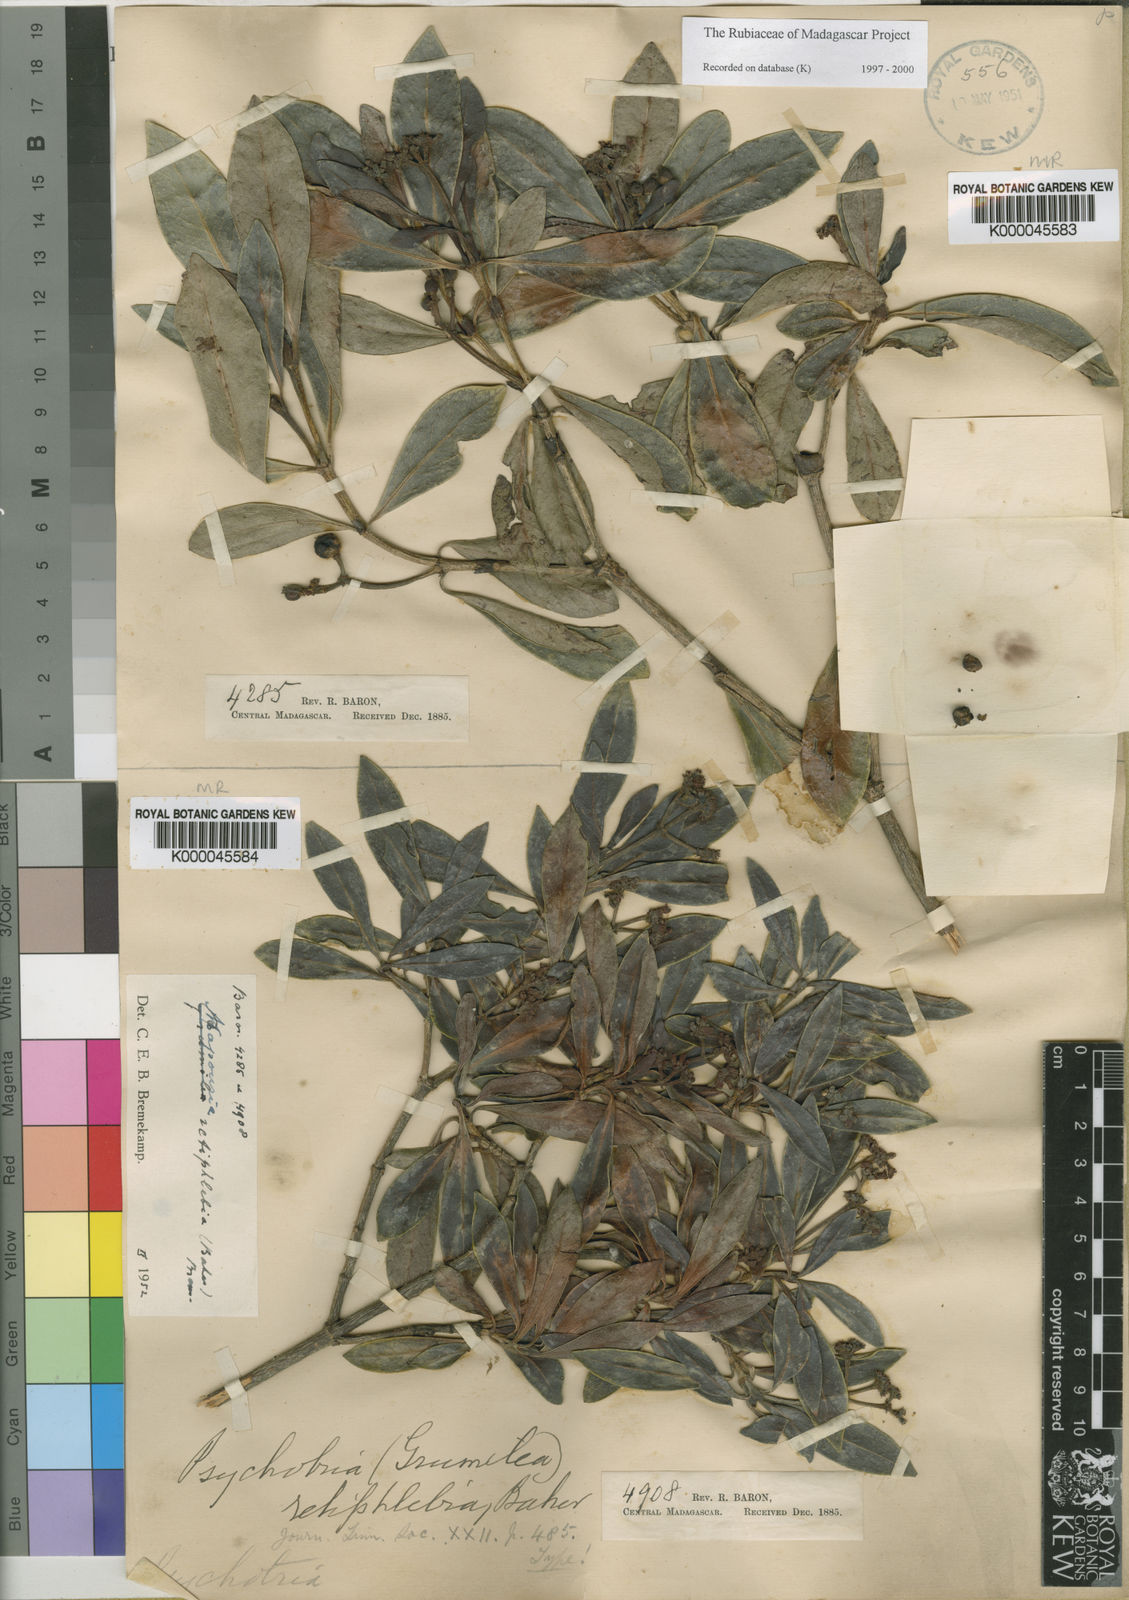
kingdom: Plantae
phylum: Tracheophyta
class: Magnoliopsida
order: Gentianales
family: Rubiaceae
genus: Psychotria
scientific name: Psychotria retiphlebia
